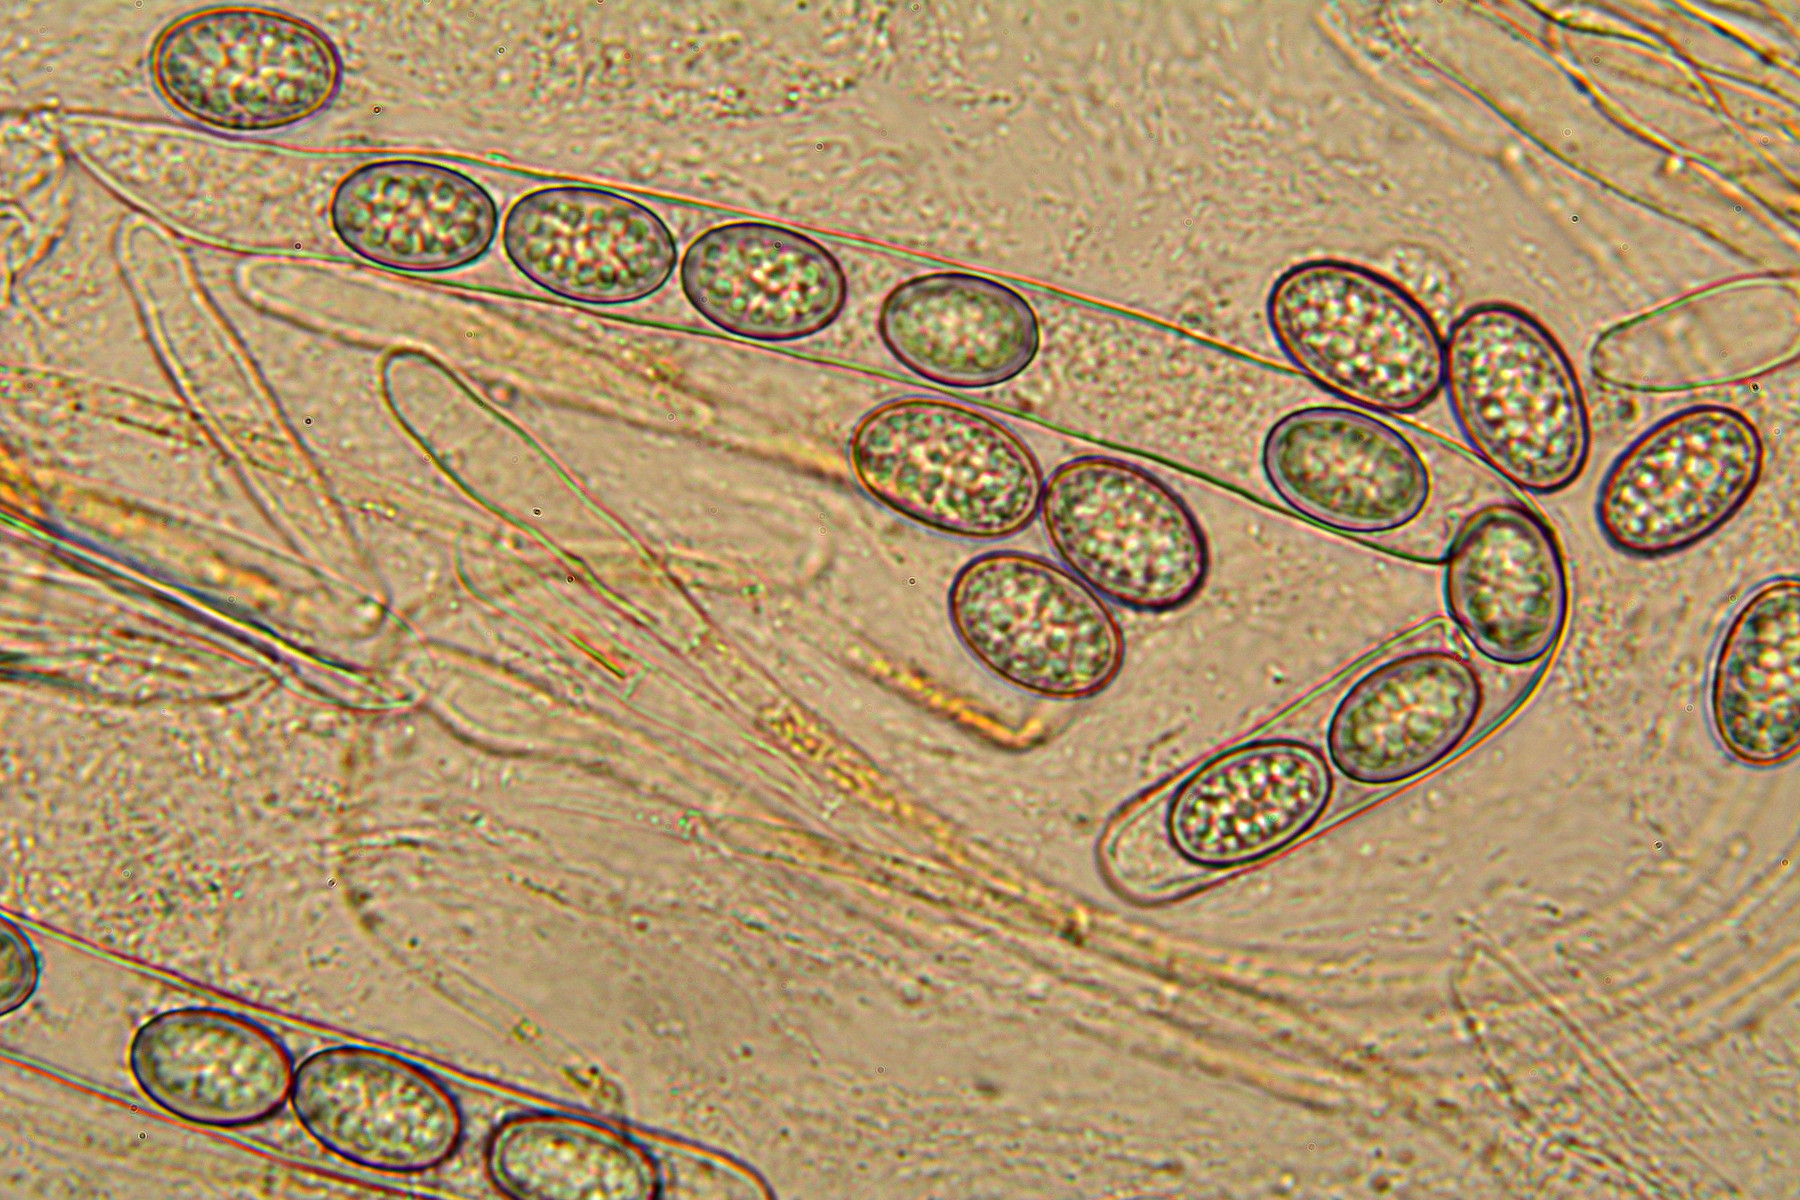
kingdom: Fungi
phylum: Ascomycota
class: Pezizomycetes
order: Pezizales
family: Pyronemataceae
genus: Scutellinia
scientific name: Scutellinia scutellata
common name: frynset skjoldbæger
